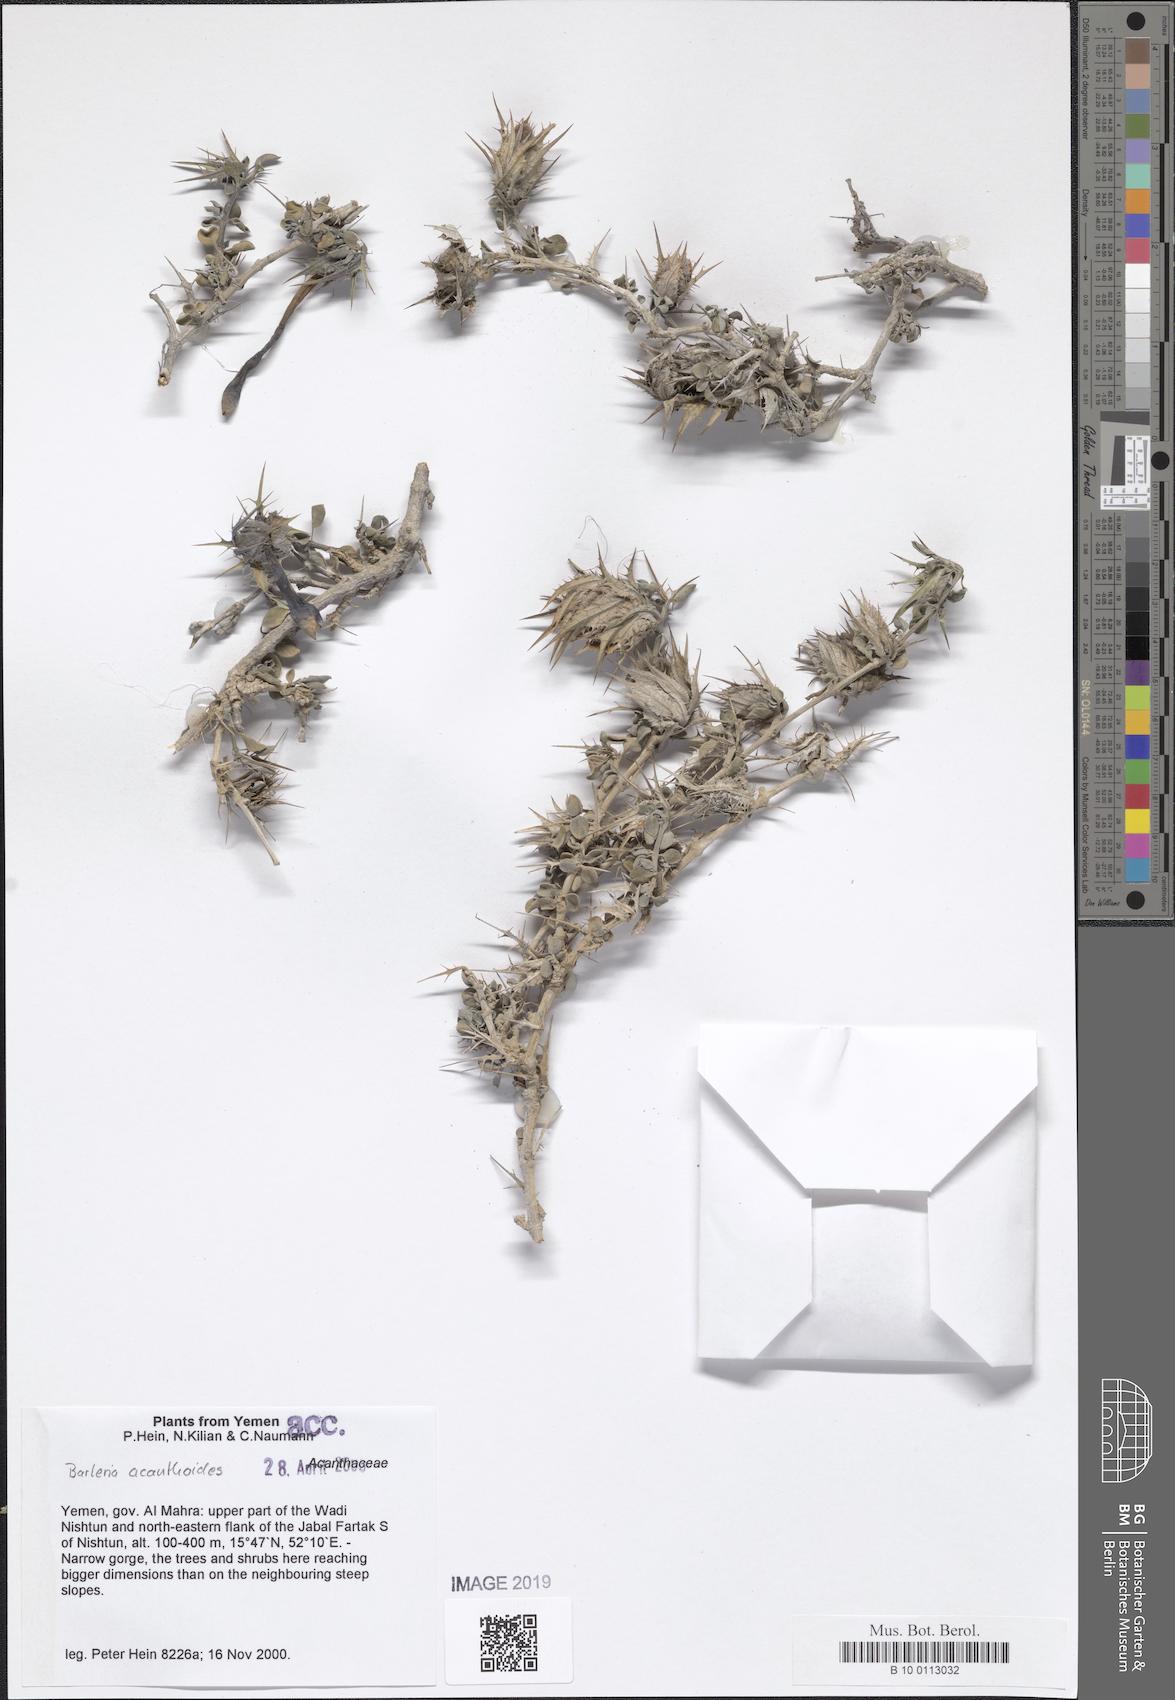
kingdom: Plantae
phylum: Tracheophyta
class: Magnoliopsida
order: Lamiales
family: Acanthaceae
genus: Barleria
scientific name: Barleria acanthoides
